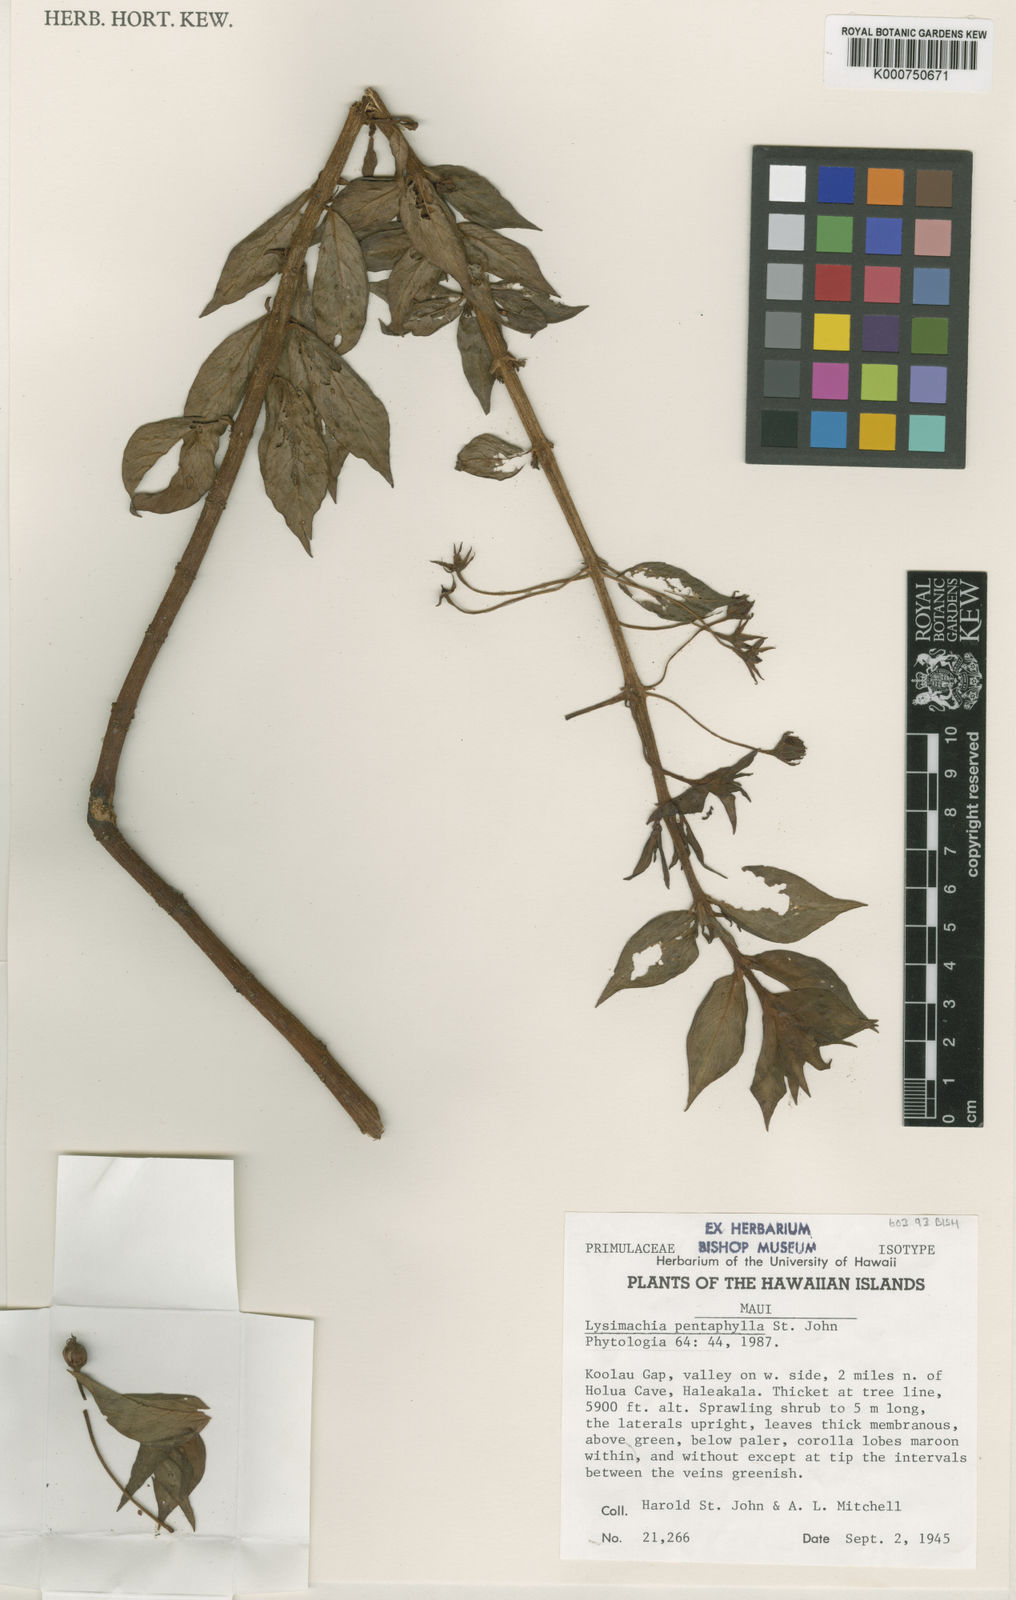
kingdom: Plantae
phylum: Tracheophyta
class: Magnoliopsida
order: Ericales
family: Primulaceae
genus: Lysimachia
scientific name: Lysimachia remyi
